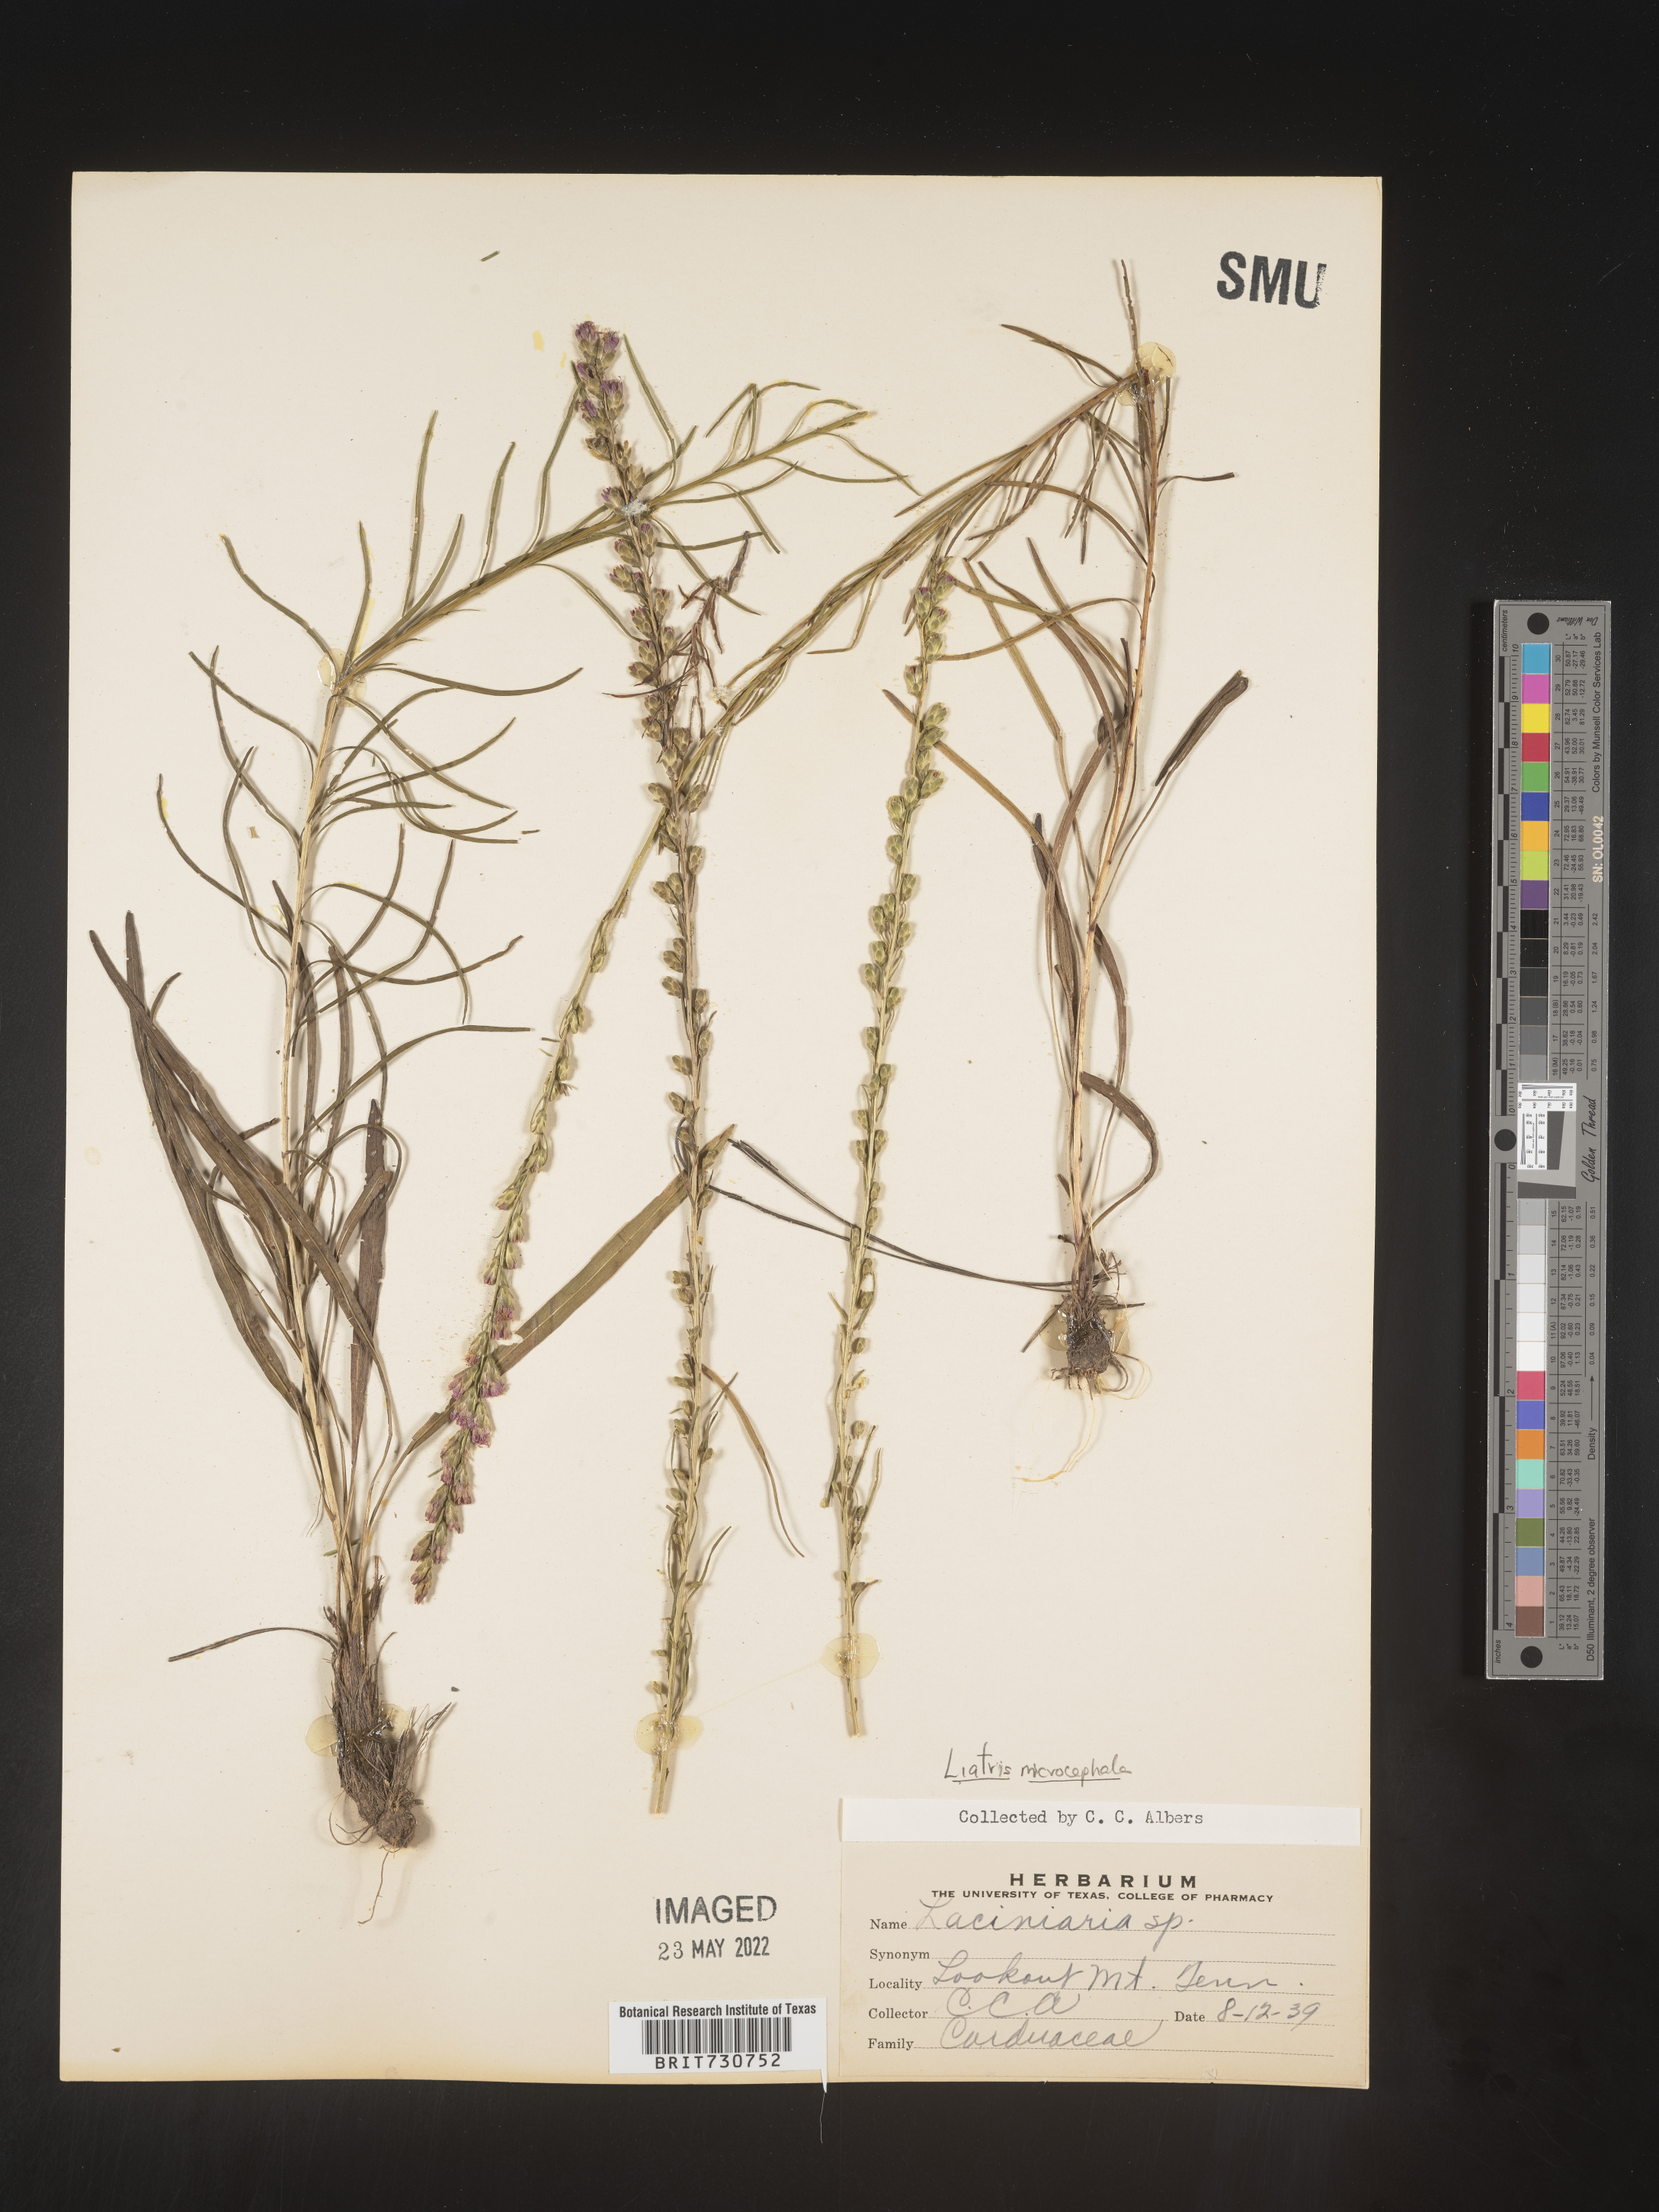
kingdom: Plantae
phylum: Tracheophyta
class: Magnoliopsida
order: Asterales
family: Asteraceae
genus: Liatris
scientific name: Liatris microcephala
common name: Small-head gayfeather
